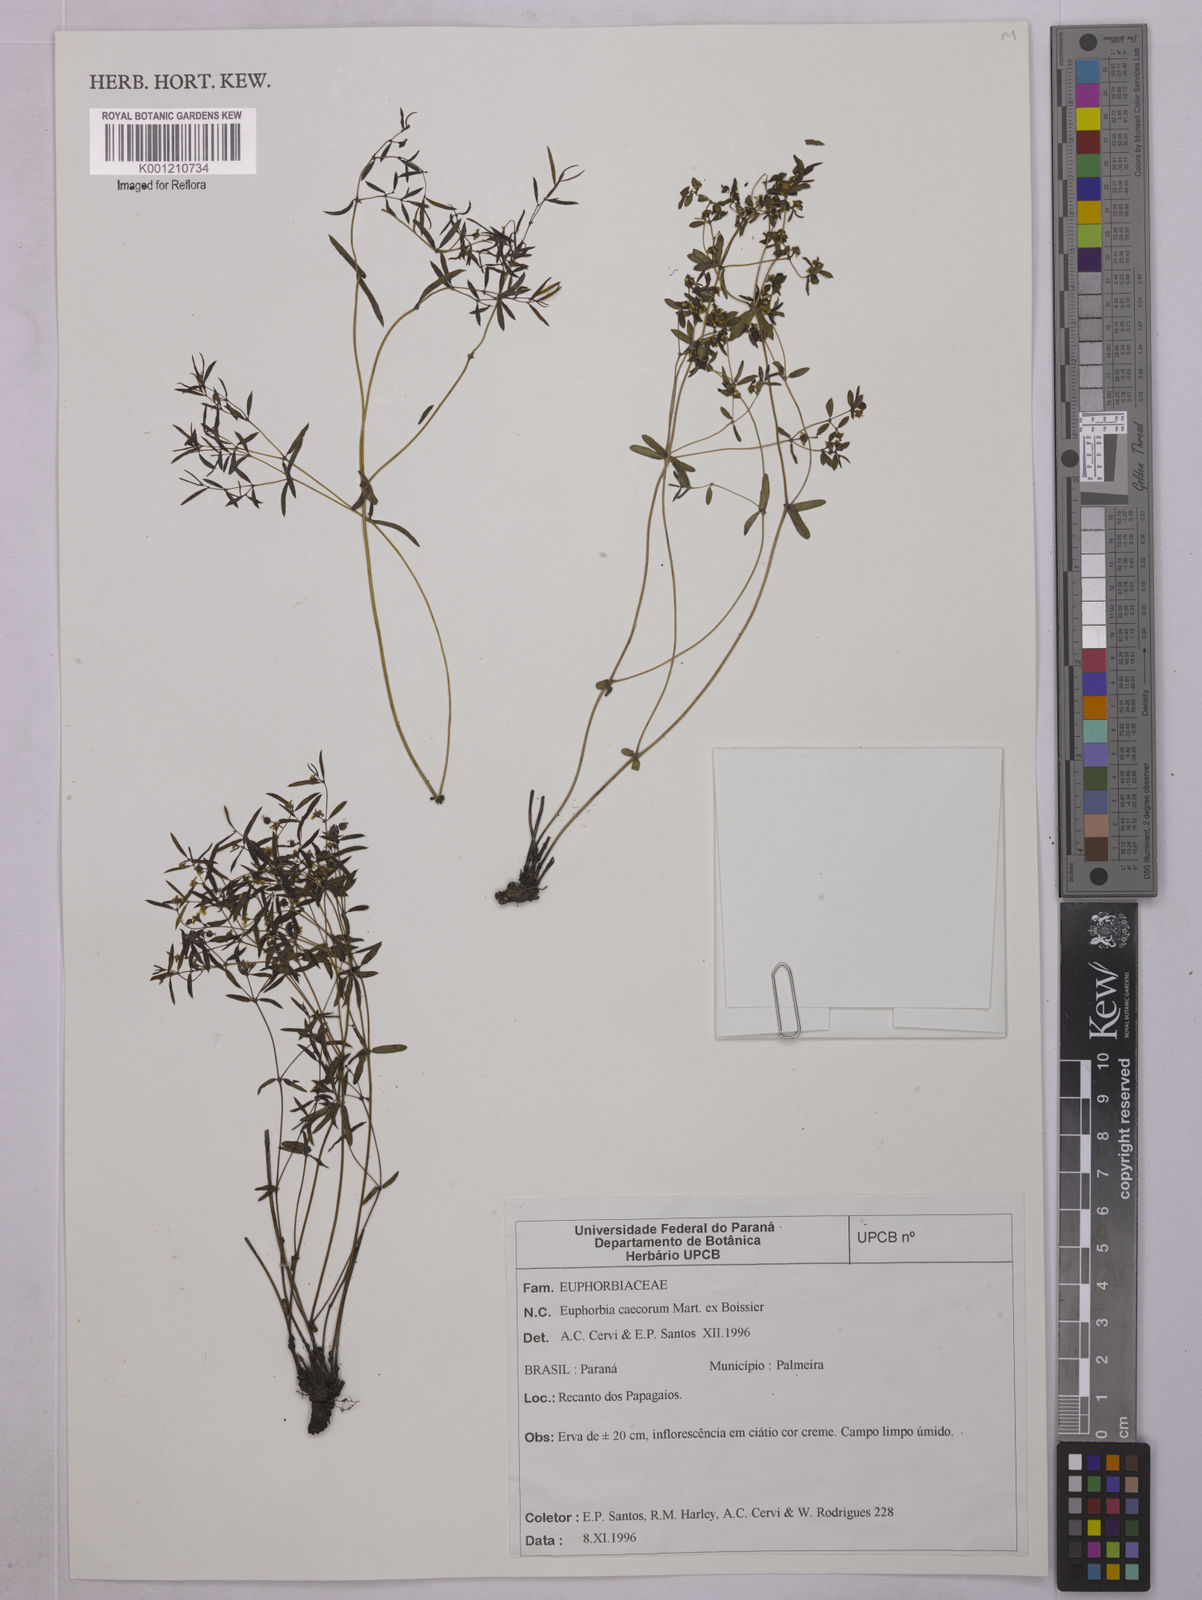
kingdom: Plantae
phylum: Tracheophyta
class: Magnoliopsida
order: Malpighiales
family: Euphorbiaceae
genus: Euphorbia
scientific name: Euphorbia potentilloides
